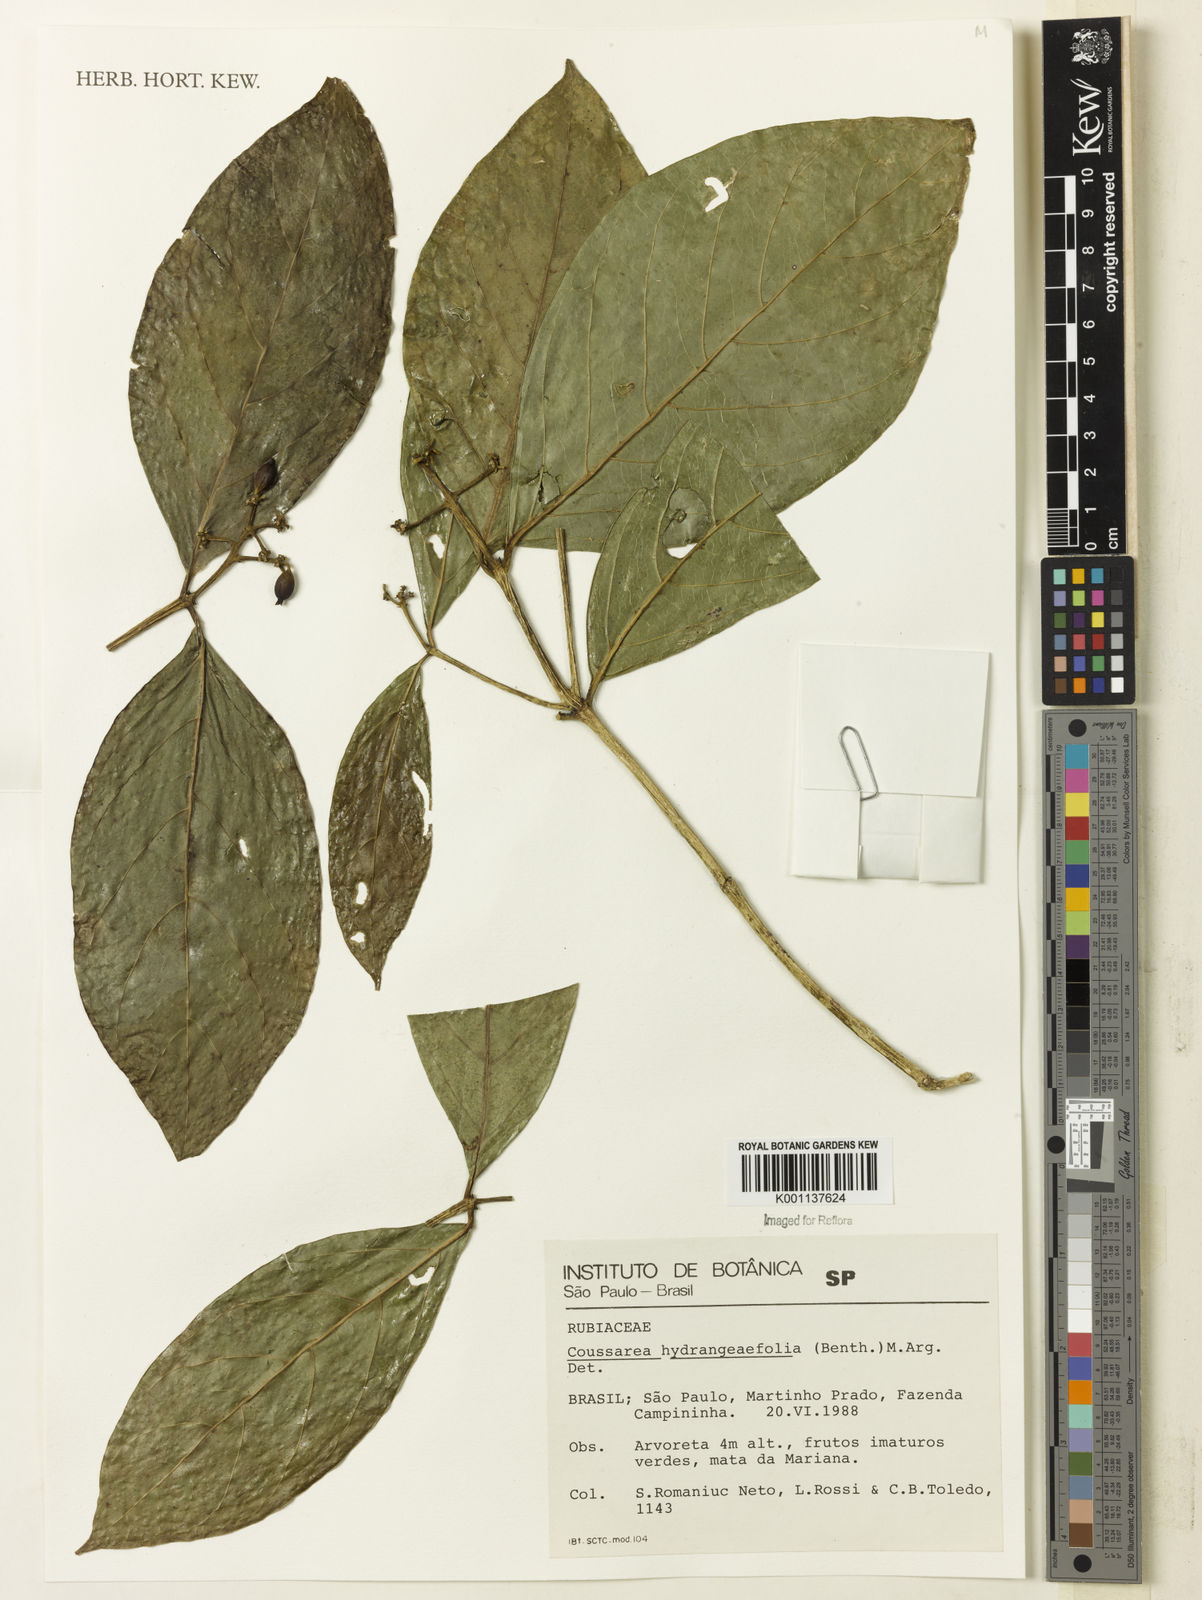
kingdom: Plantae
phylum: Tracheophyta
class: Magnoliopsida
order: Gentianales
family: Rubiaceae
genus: Coussarea
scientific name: Coussarea
